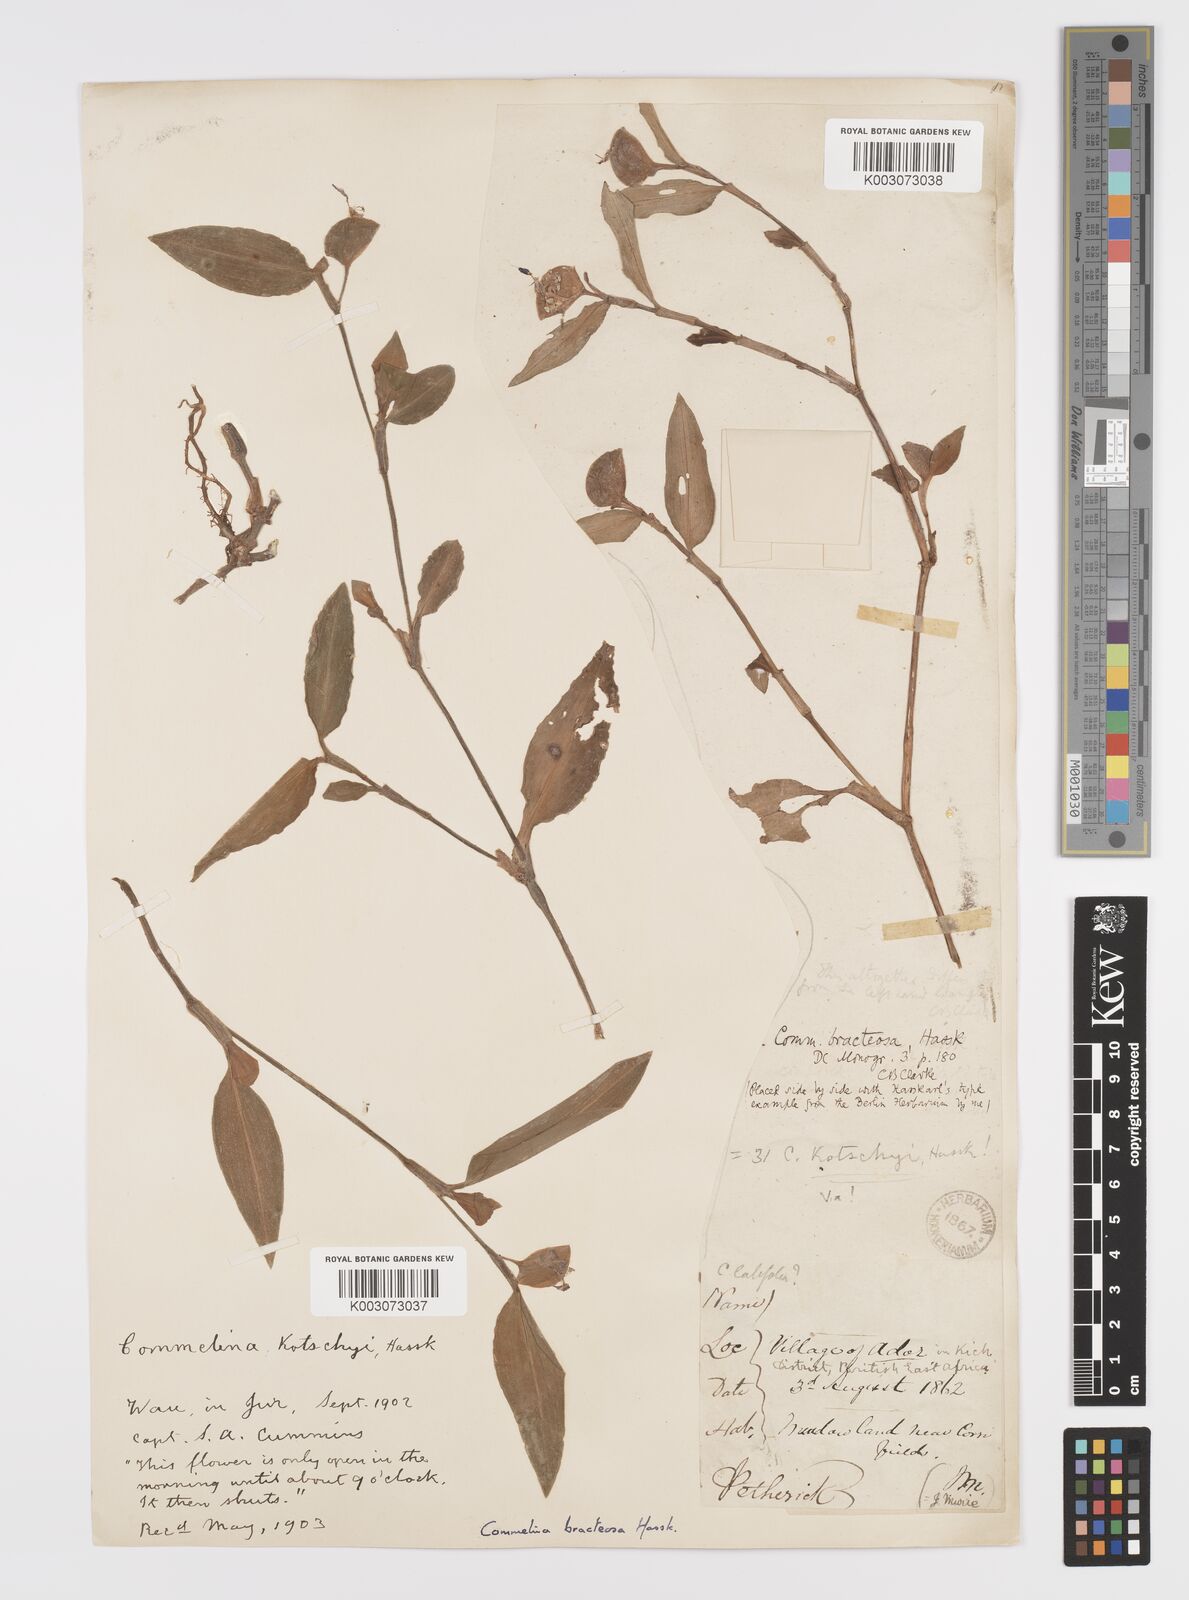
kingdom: Plantae
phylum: Tracheophyta
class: Liliopsida
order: Commelinales
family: Commelinaceae
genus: Commelina
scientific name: Commelina bracteosa
